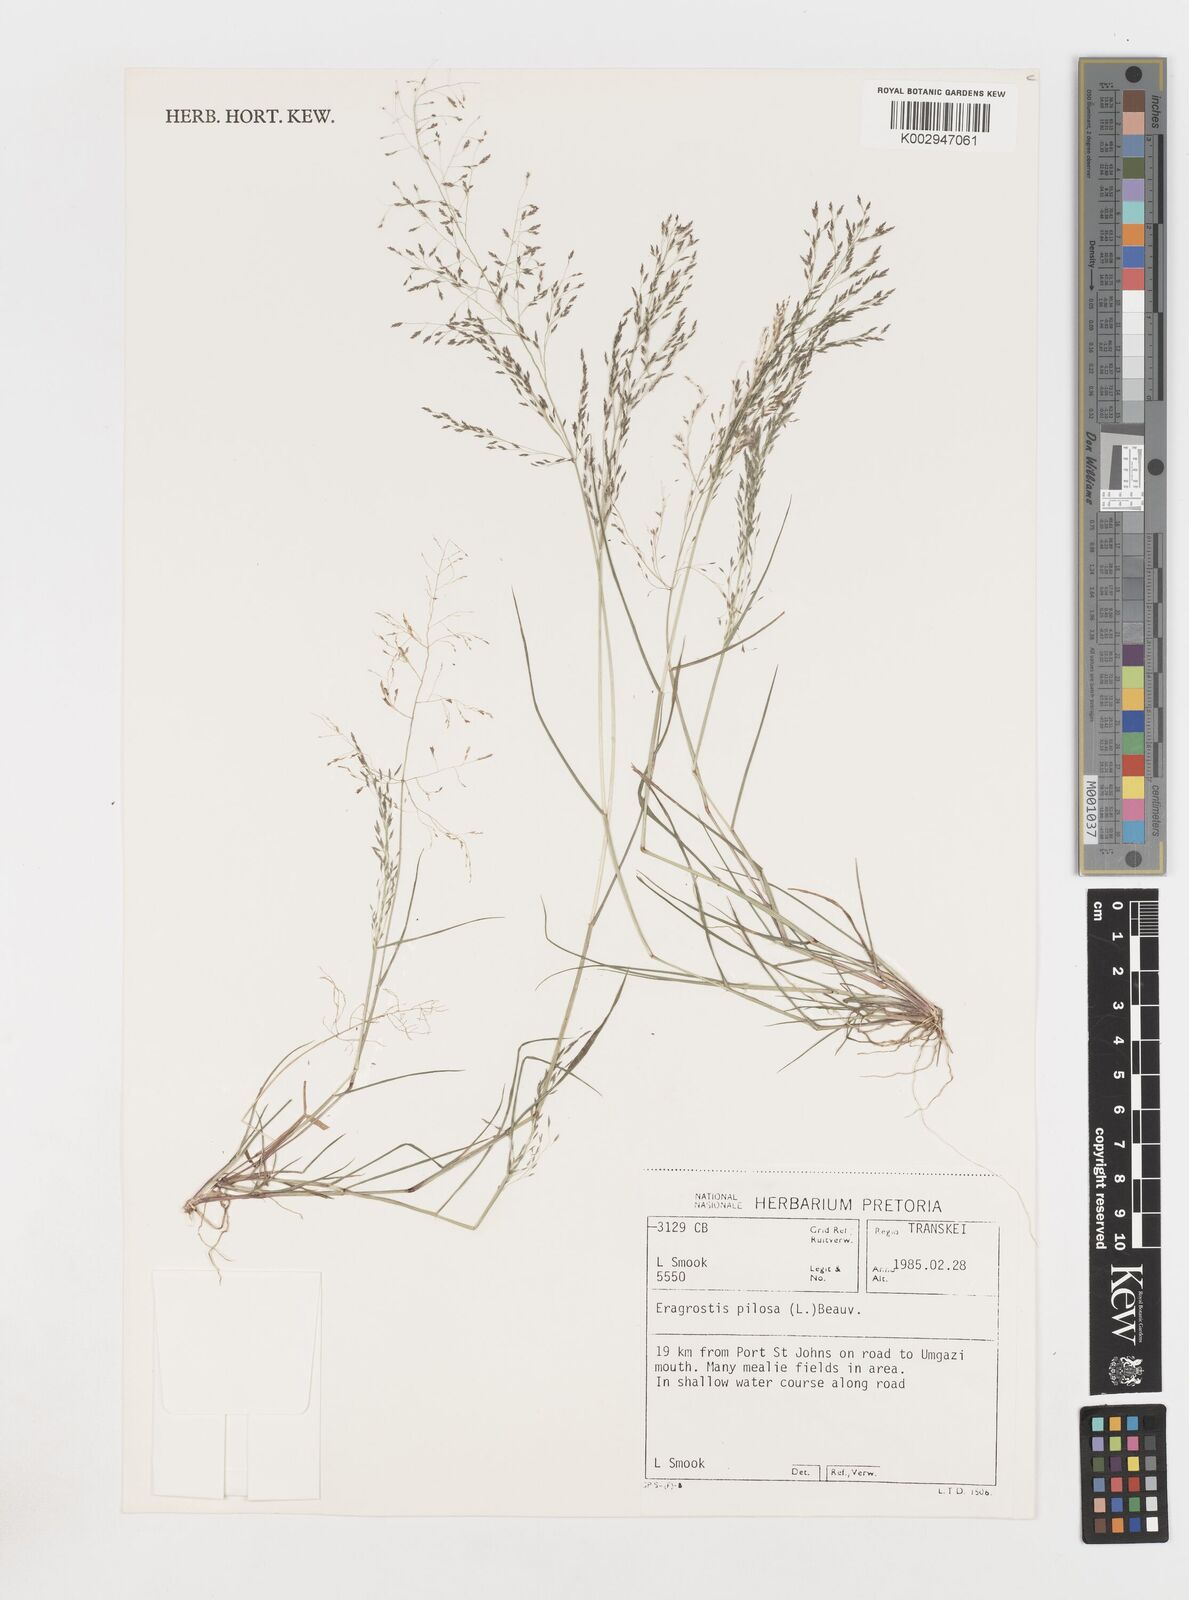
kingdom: Plantae
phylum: Tracheophyta
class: Liliopsida
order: Poales
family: Poaceae
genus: Eragrostis
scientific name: Eragrostis pilosa
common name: Indian lovegrass
